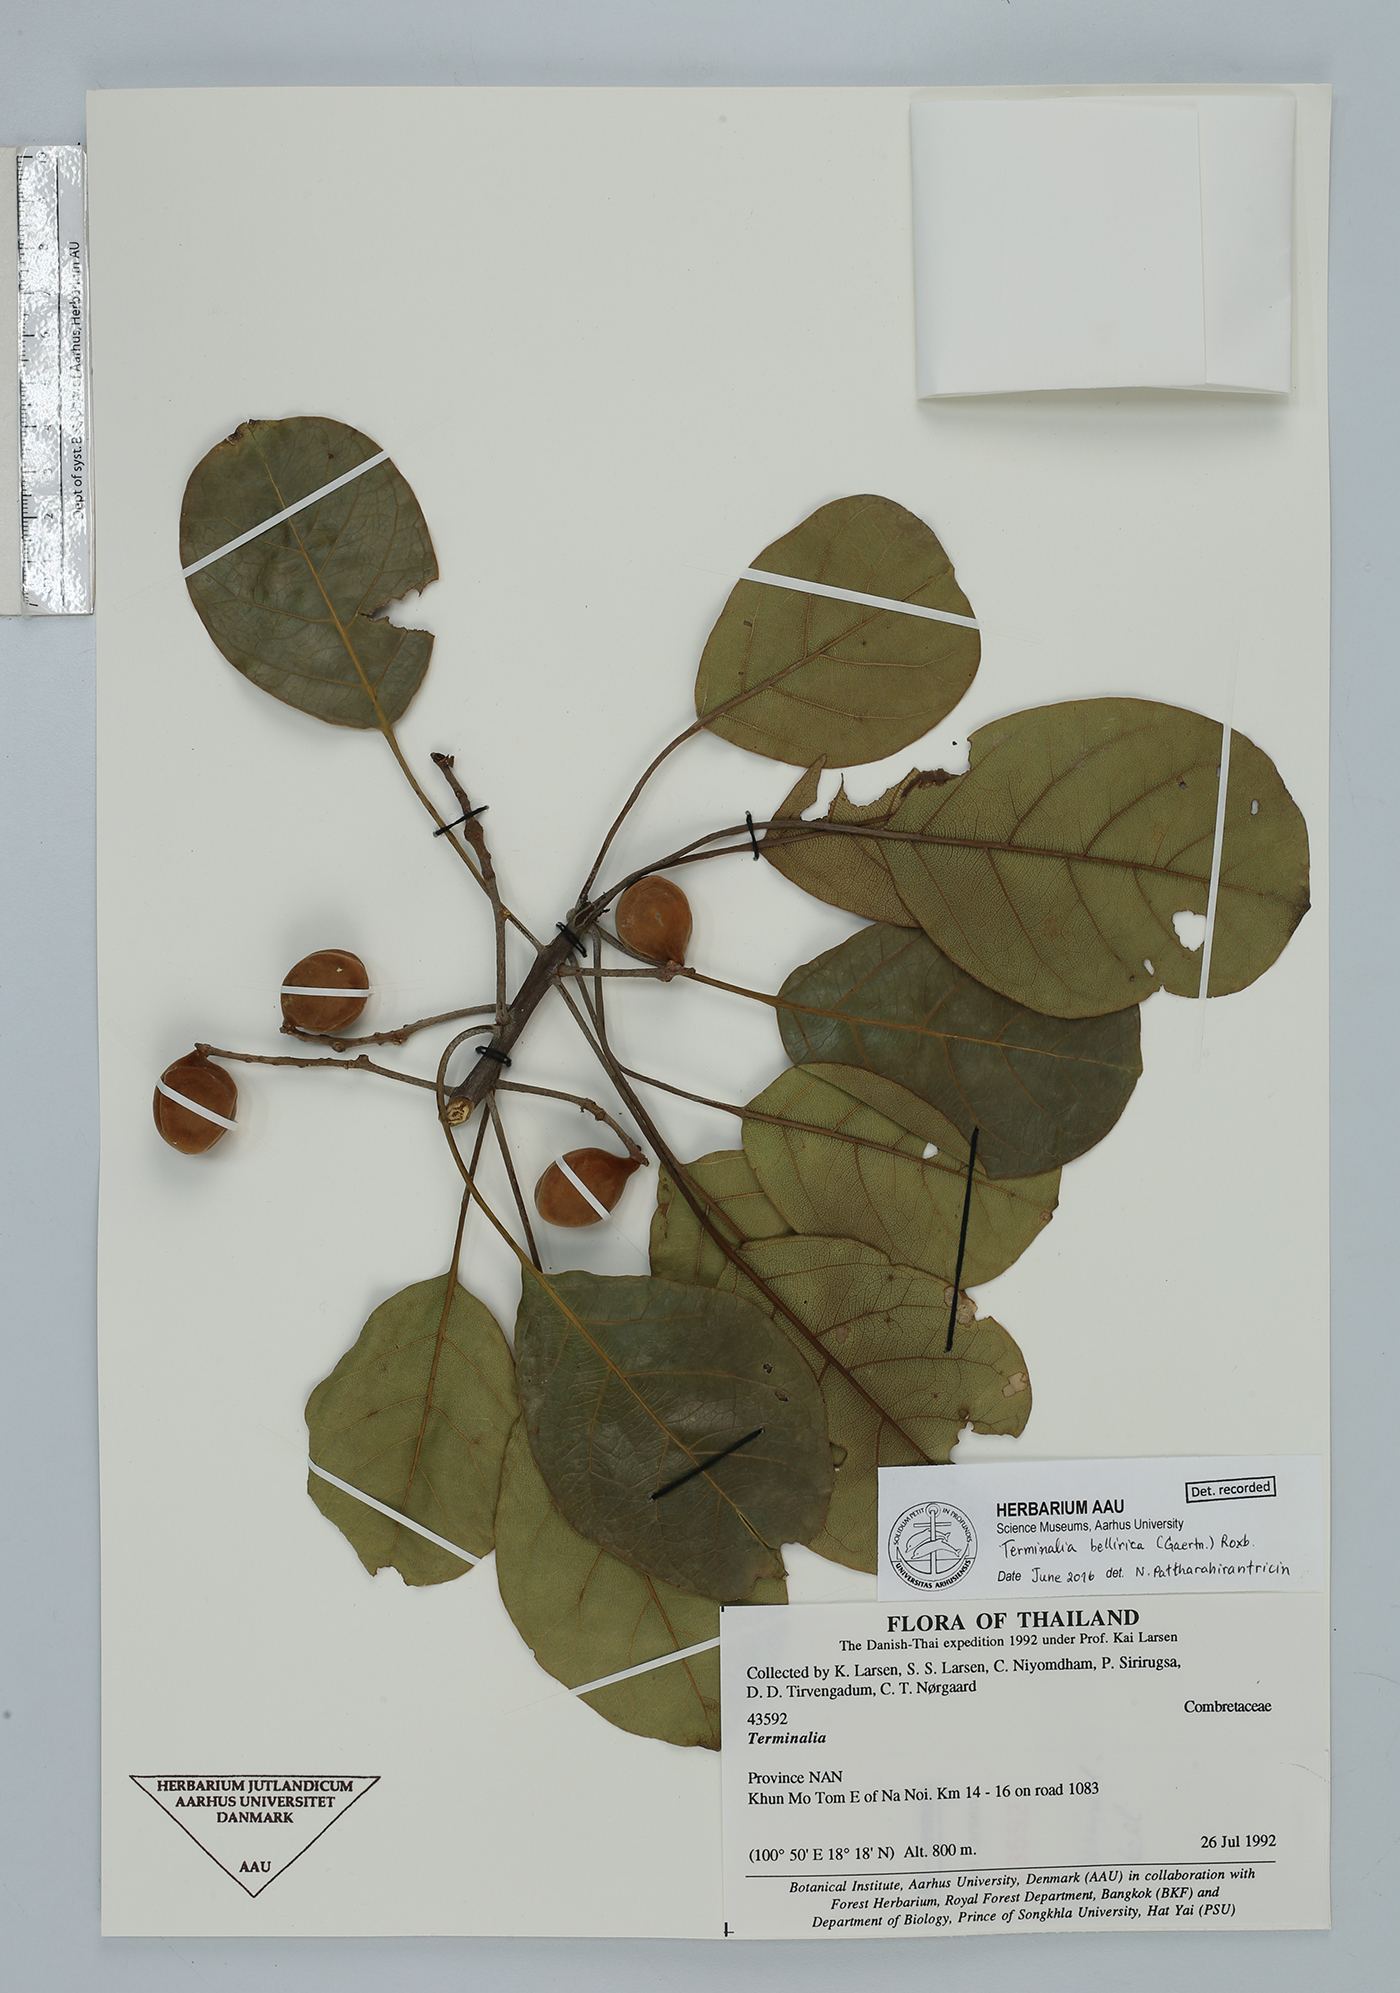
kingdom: Plantae
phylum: Tracheophyta
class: Magnoliopsida
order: Myrtales
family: Combretaceae
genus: Terminalia
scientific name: Terminalia bellirica
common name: Beleric myrobalan
